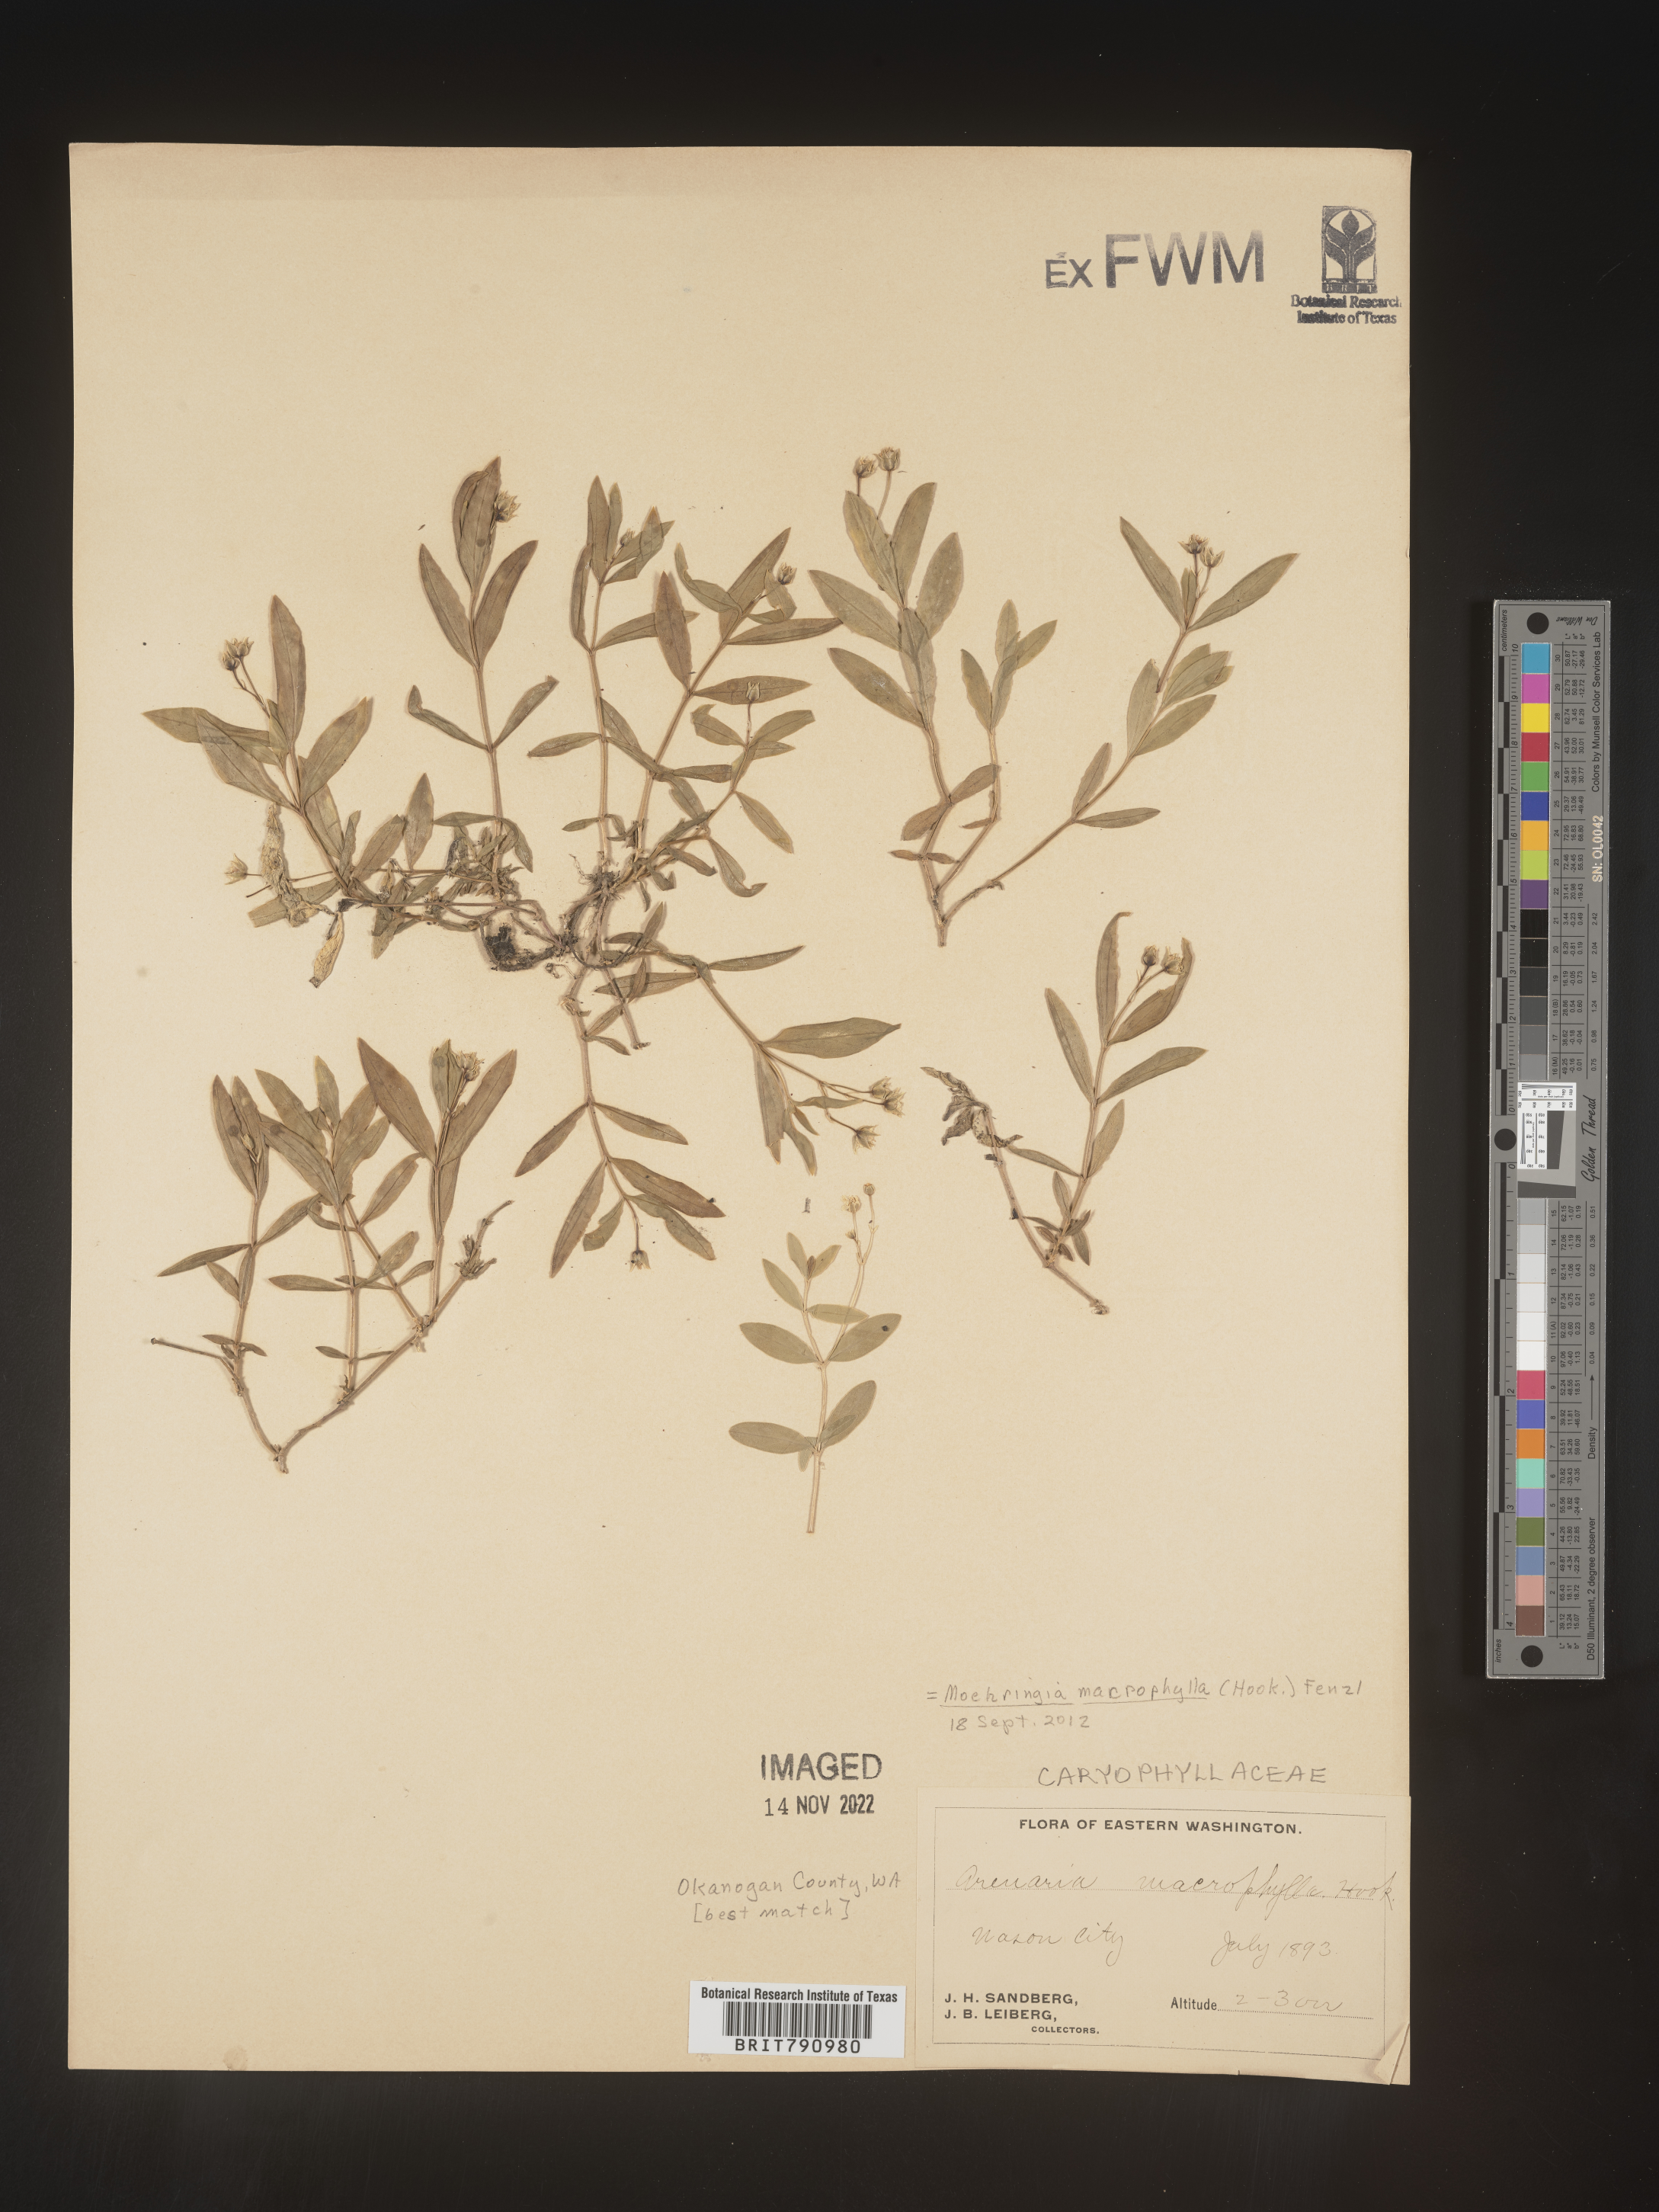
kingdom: Plantae
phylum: Tracheophyta
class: Magnoliopsida
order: Caryophyllales
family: Caryophyllaceae
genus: Moehringia
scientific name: Moehringia
